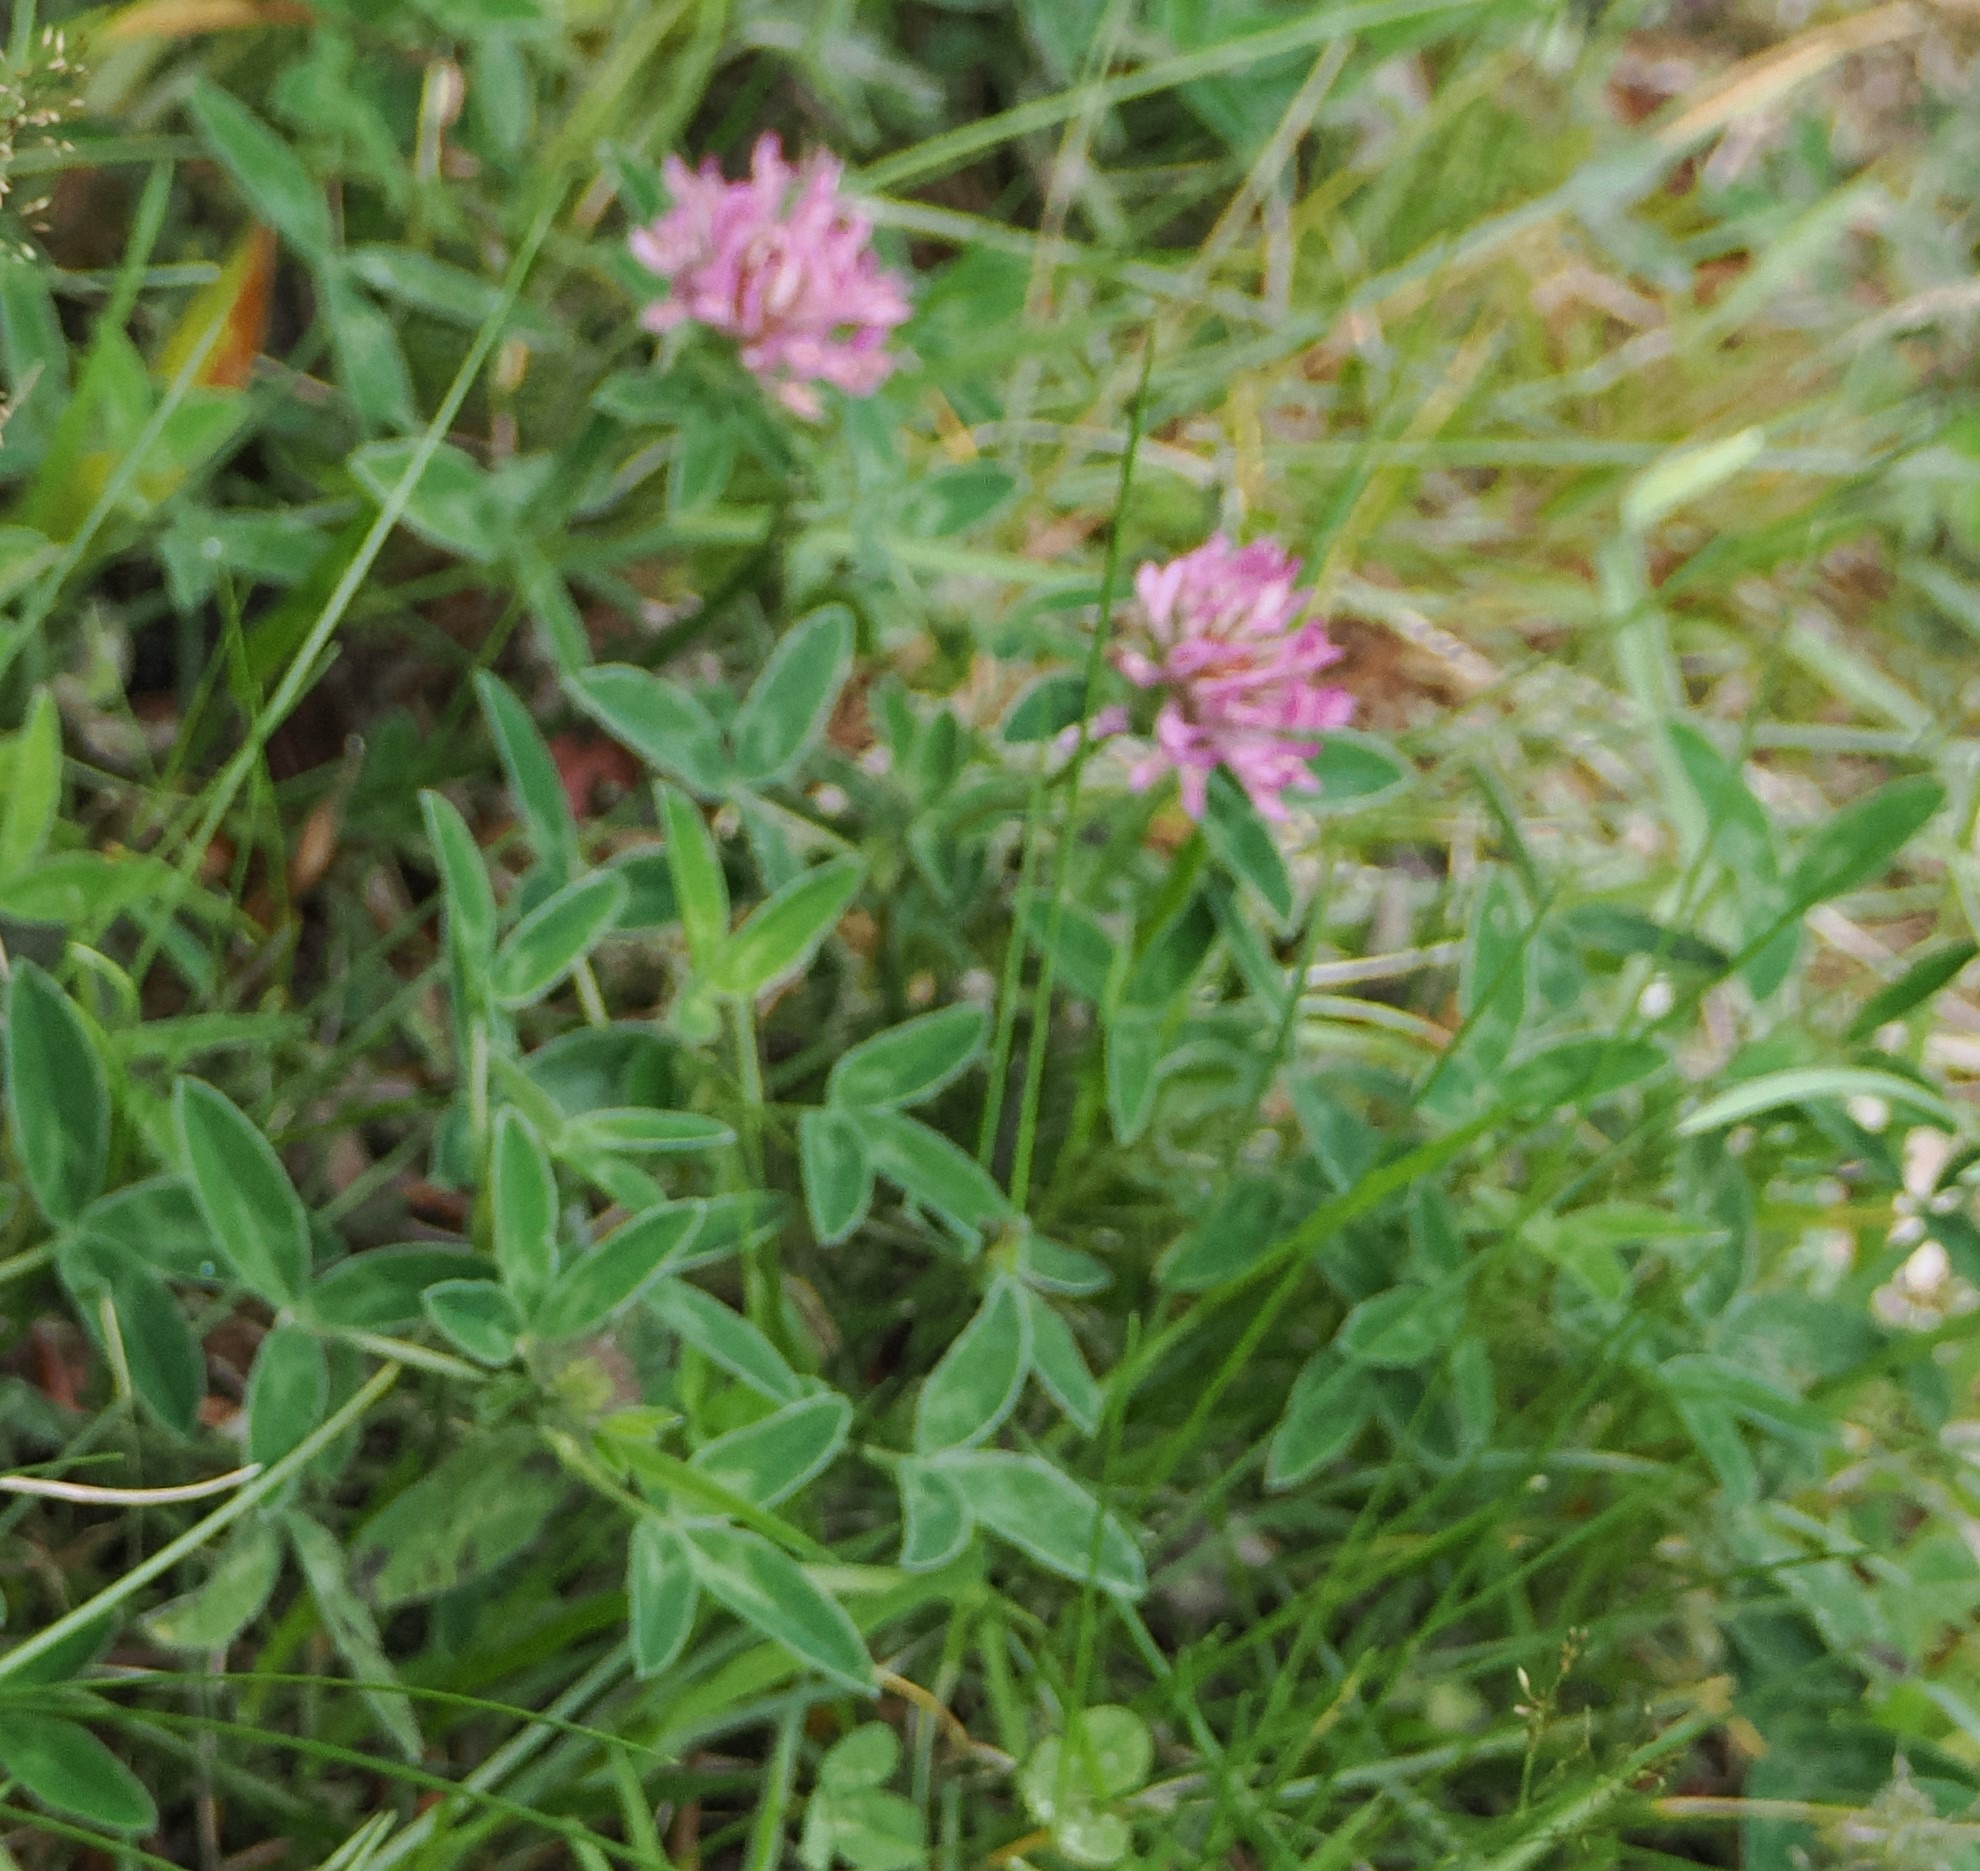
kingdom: Plantae
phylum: Tracheophyta
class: Magnoliopsida
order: Fabales
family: Fabaceae
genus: Trifolium
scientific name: Trifolium medium
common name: Bugtet kløver
